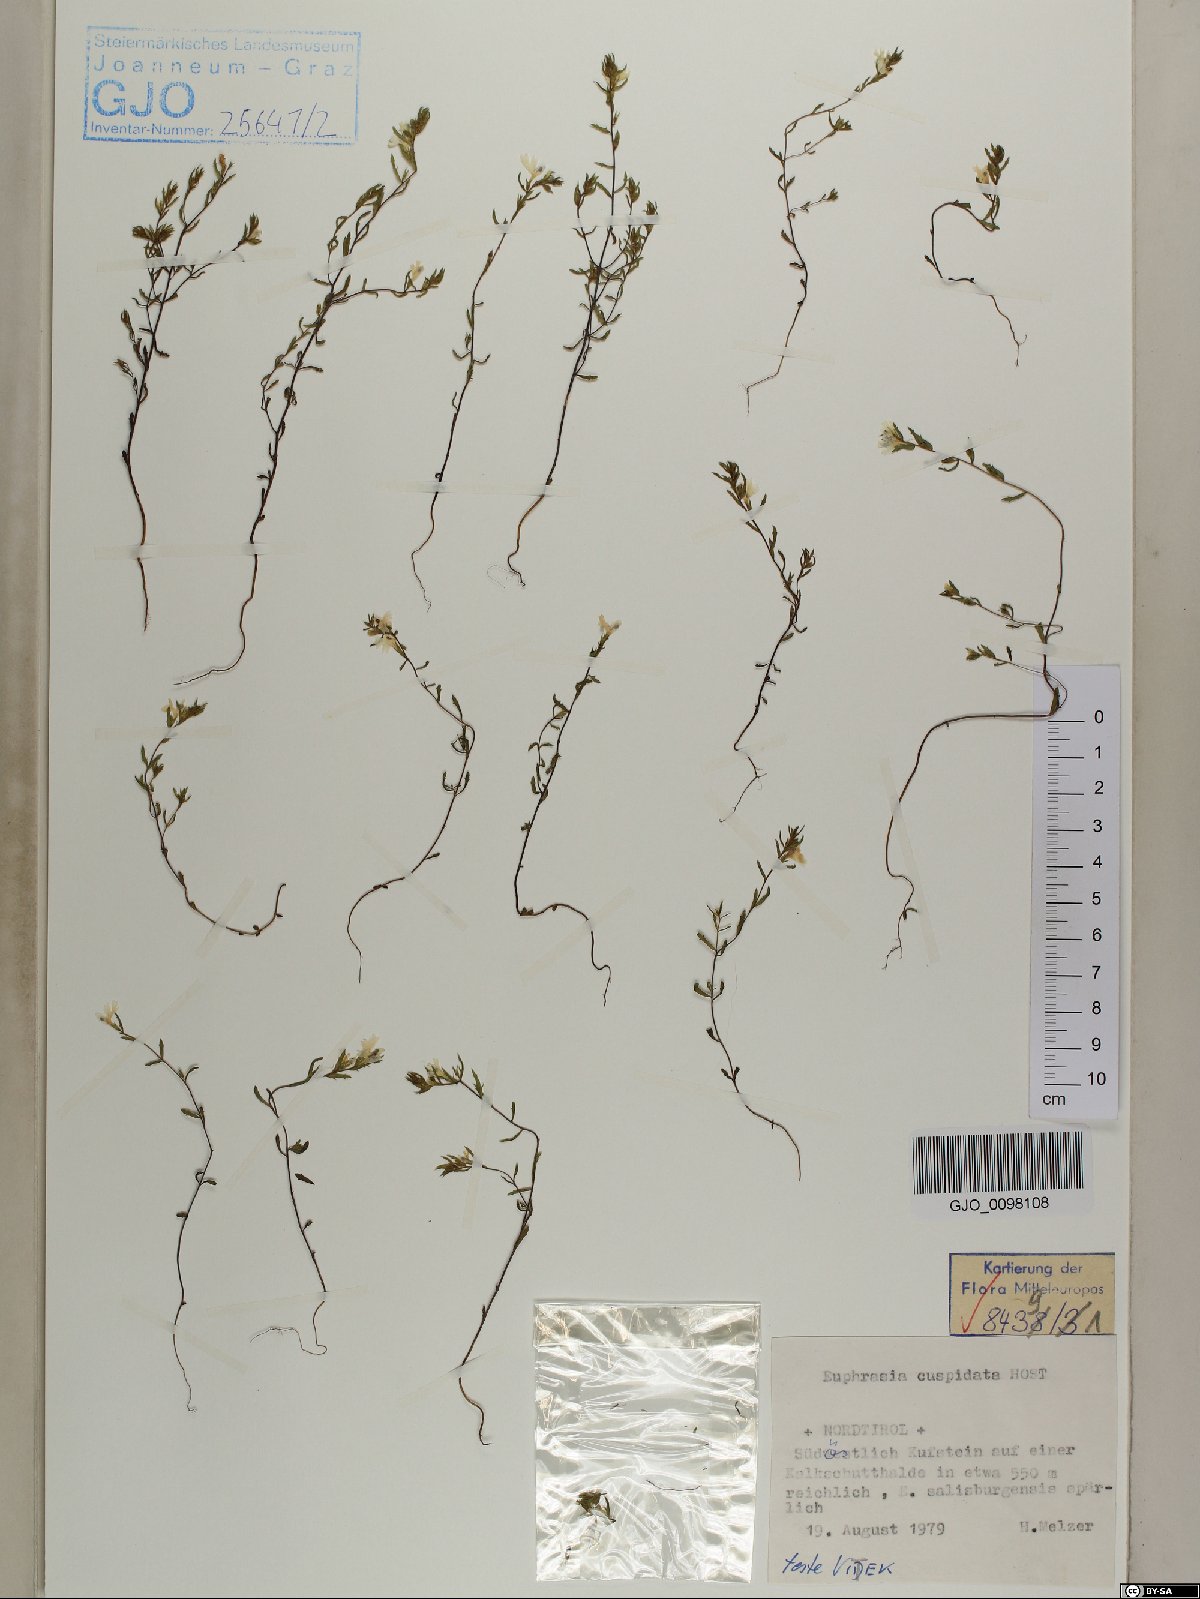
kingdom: Plantae
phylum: Tracheophyta
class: Magnoliopsida
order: Lamiales
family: Orobanchaceae
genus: Euphrasia
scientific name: Euphrasia cuspidata
